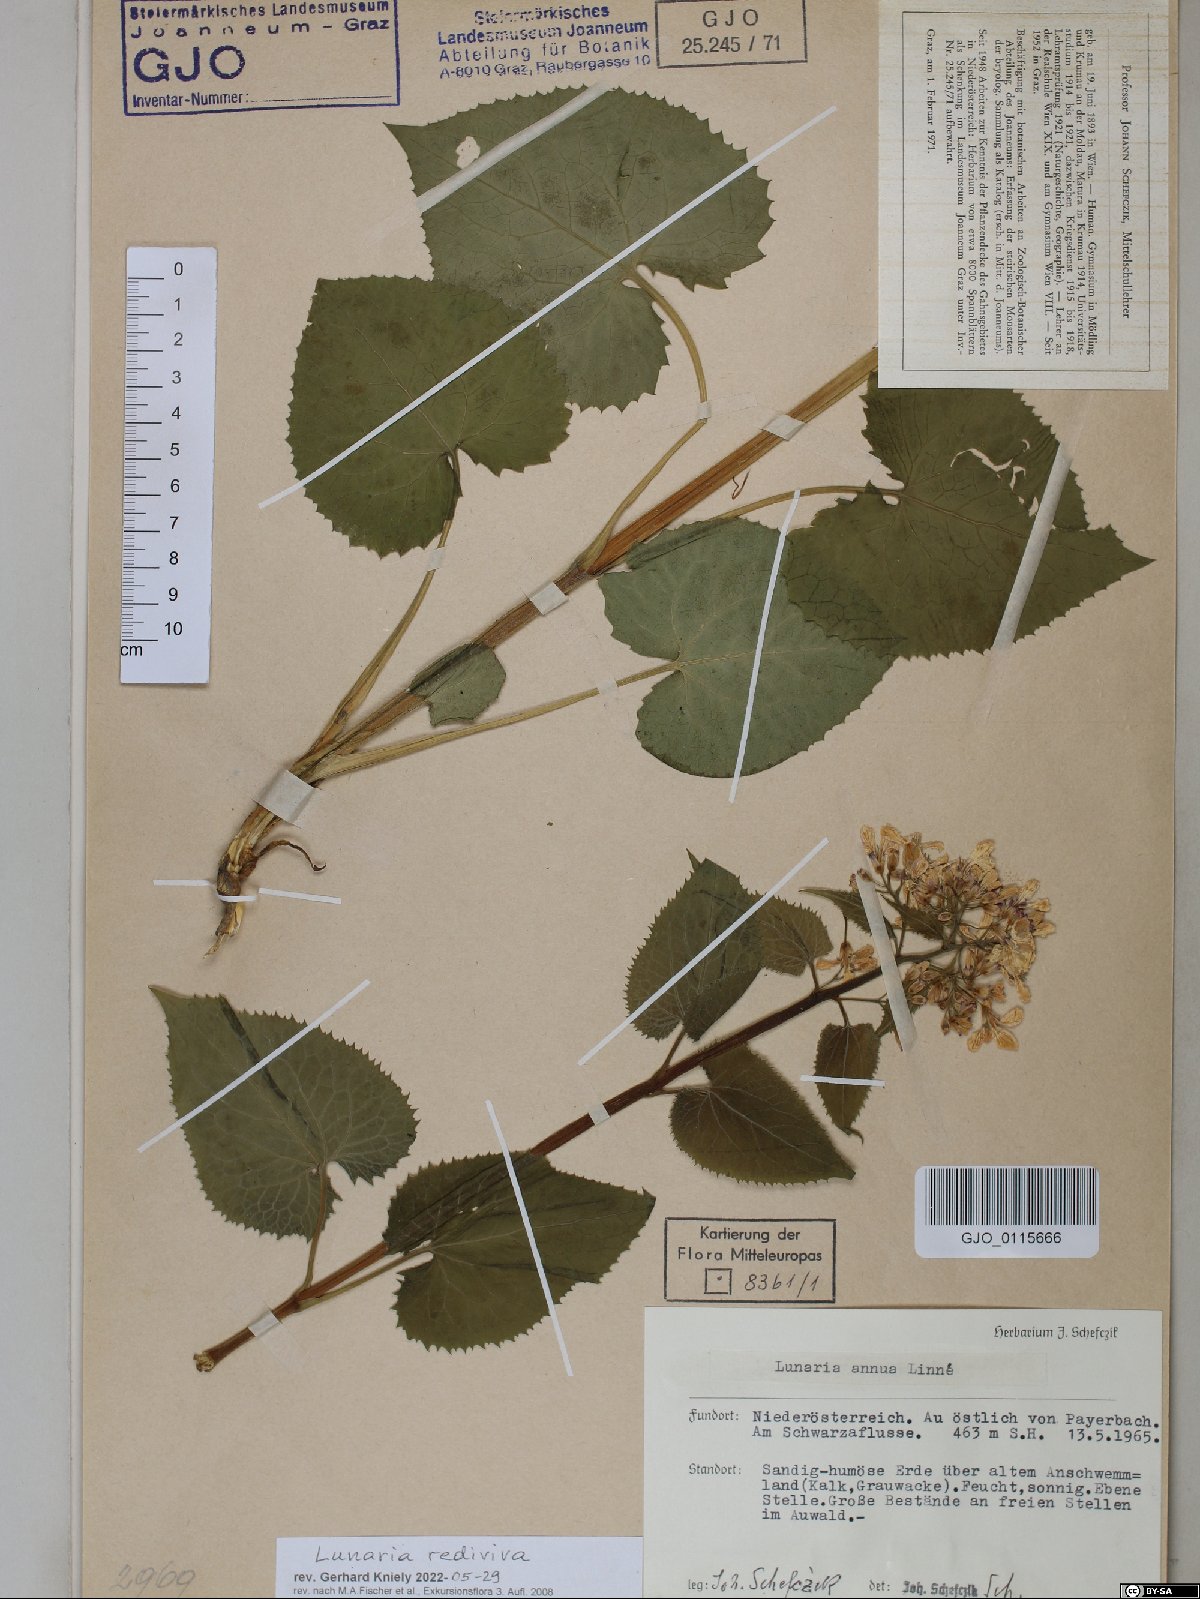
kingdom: Plantae
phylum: Tracheophyta
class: Magnoliopsida
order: Brassicales
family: Brassicaceae
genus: Lunaria
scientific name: Lunaria rediviva
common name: Perennial honesty
